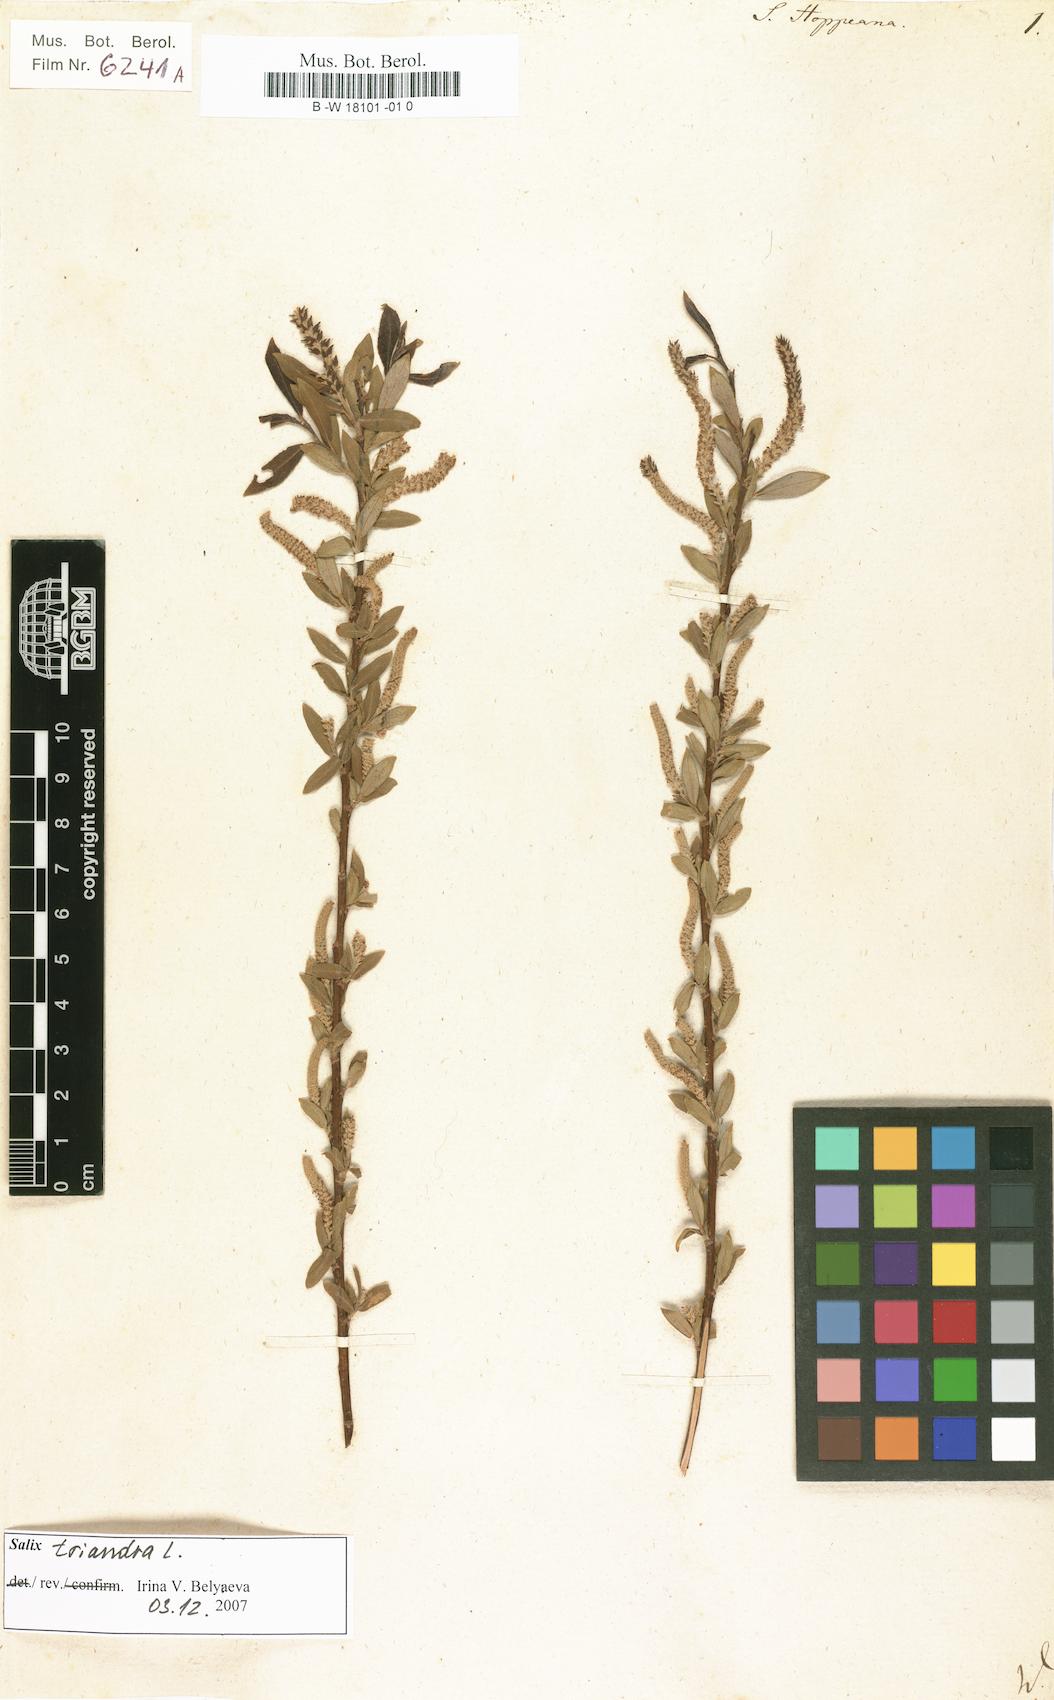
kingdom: Plantae
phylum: Tracheophyta
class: Magnoliopsida
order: Malpighiales
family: Salicaceae
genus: Salix
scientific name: Salix triandra
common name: Almond willow
